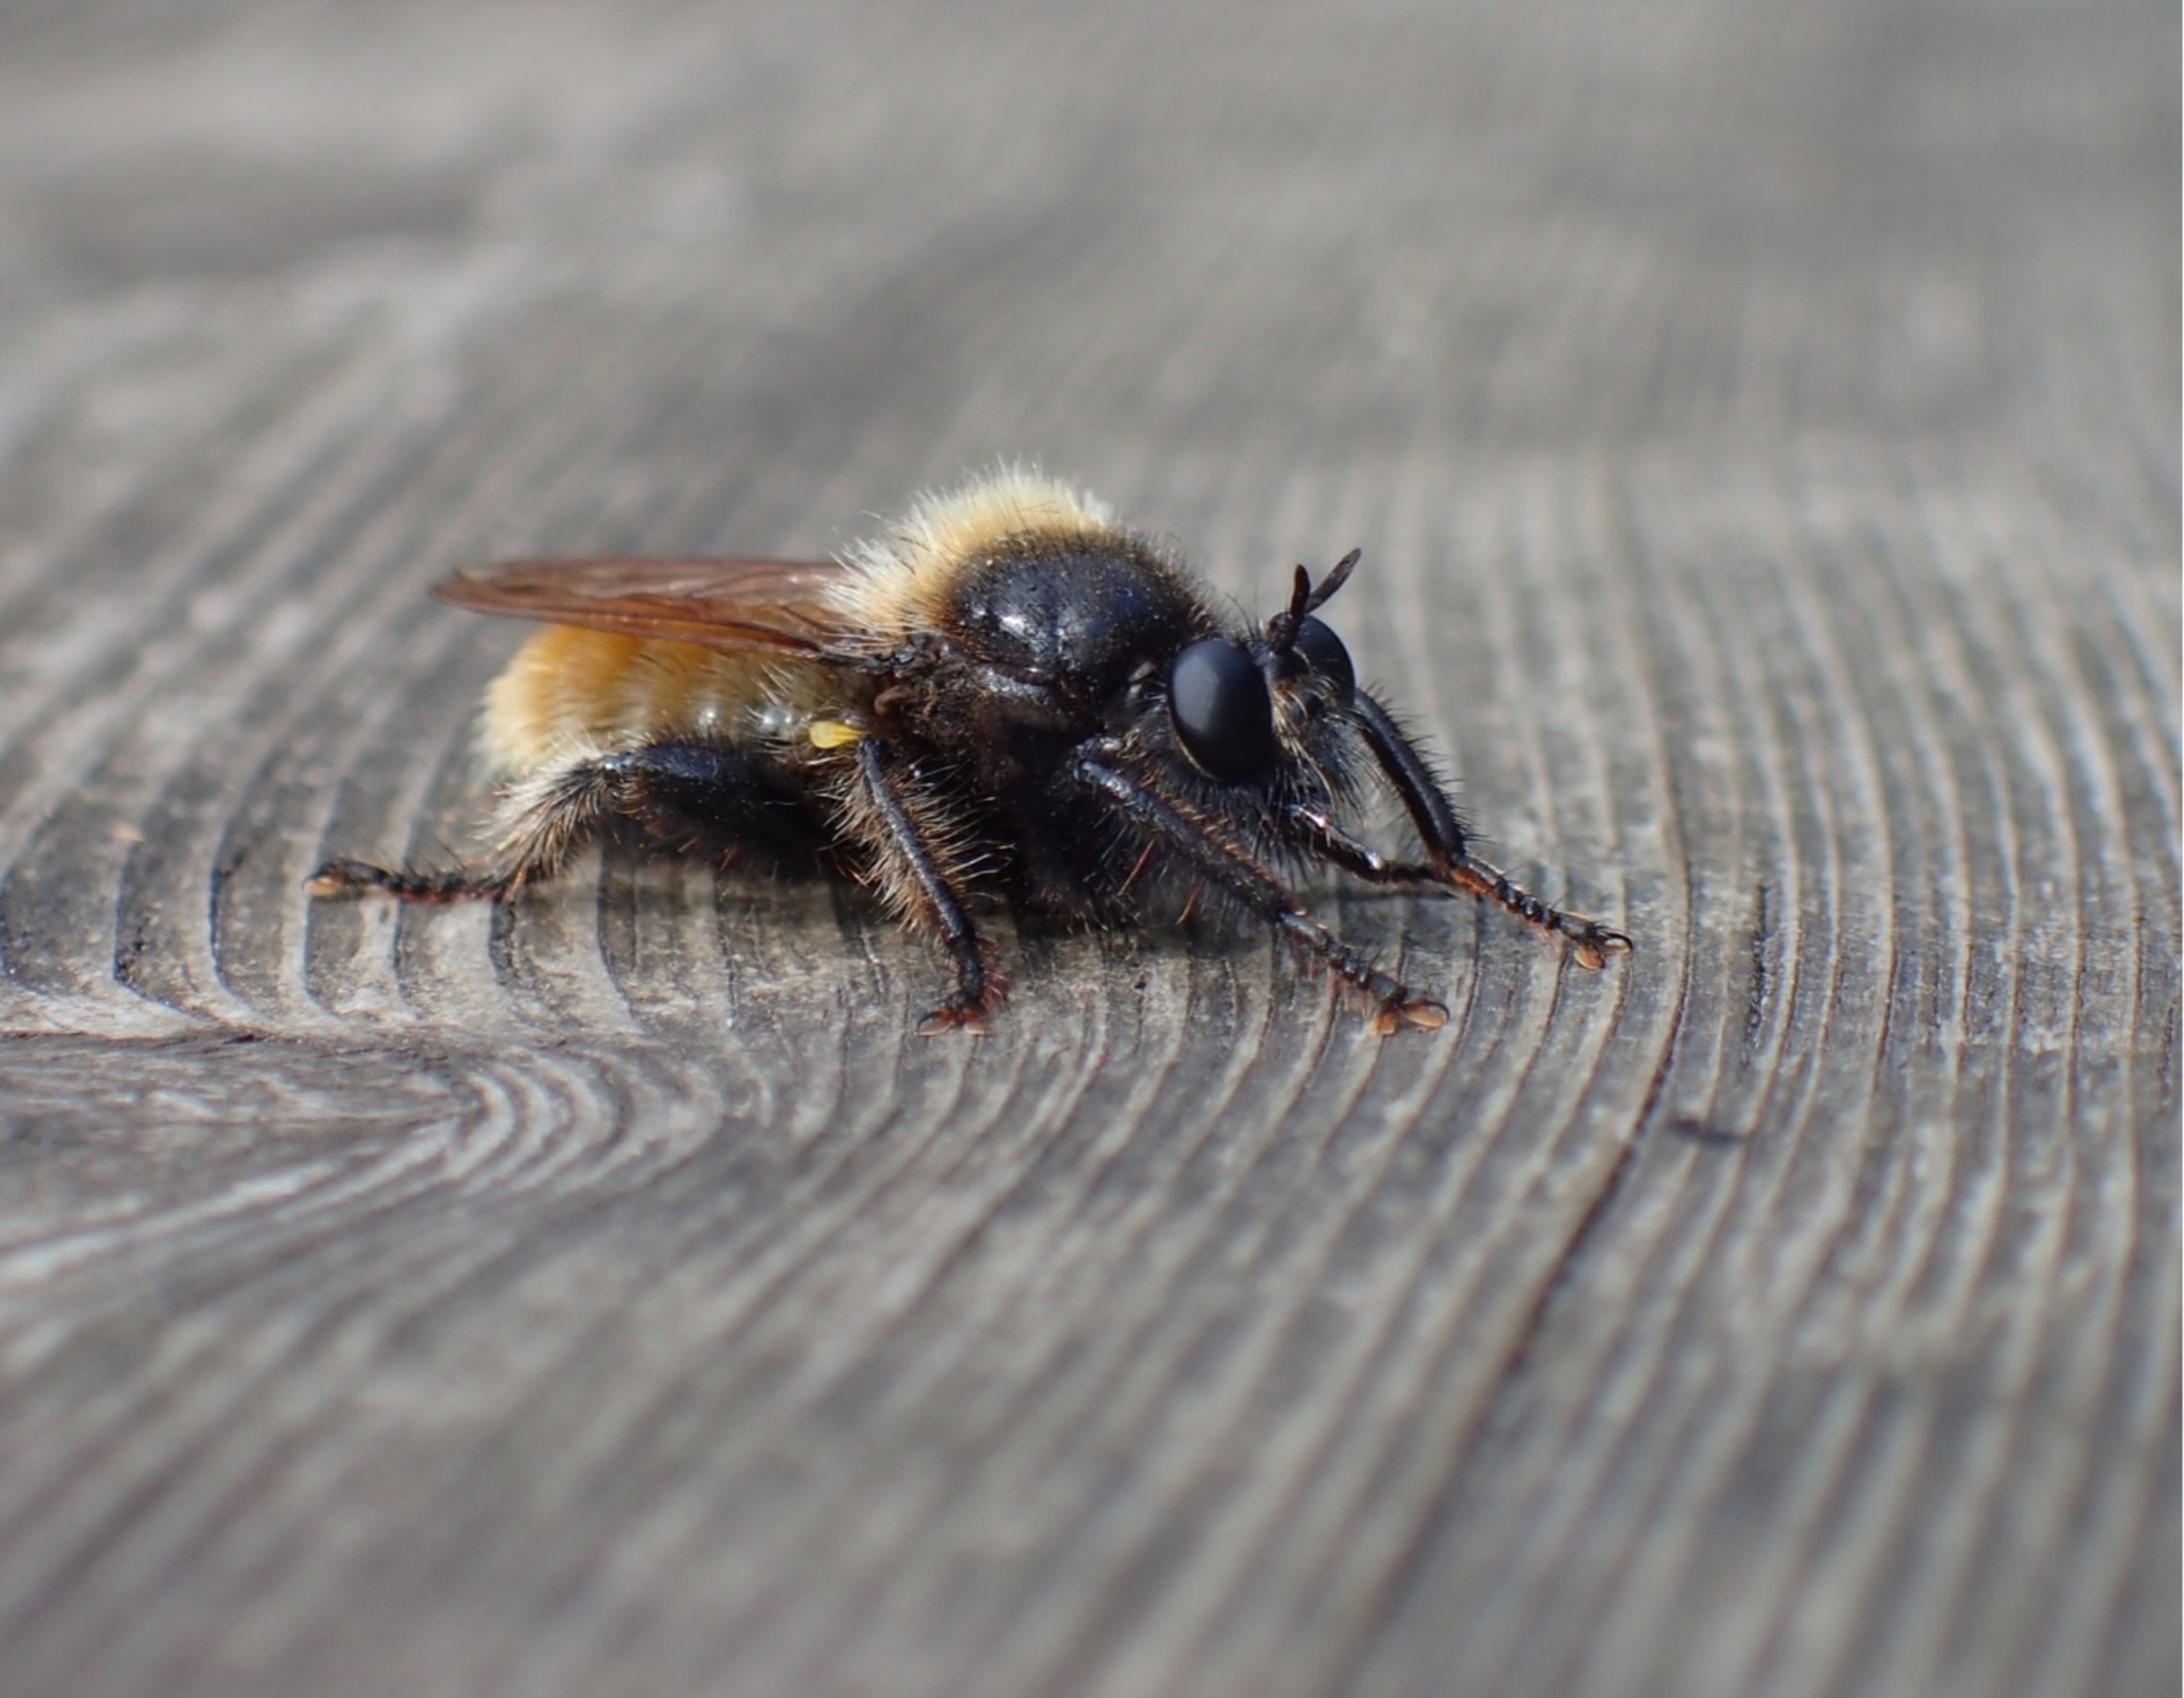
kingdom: Animalia
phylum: Arthropoda
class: Insecta
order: Diptera
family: Asilidae
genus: Laphria
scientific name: Laphria flava
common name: Gul vedrovflue
